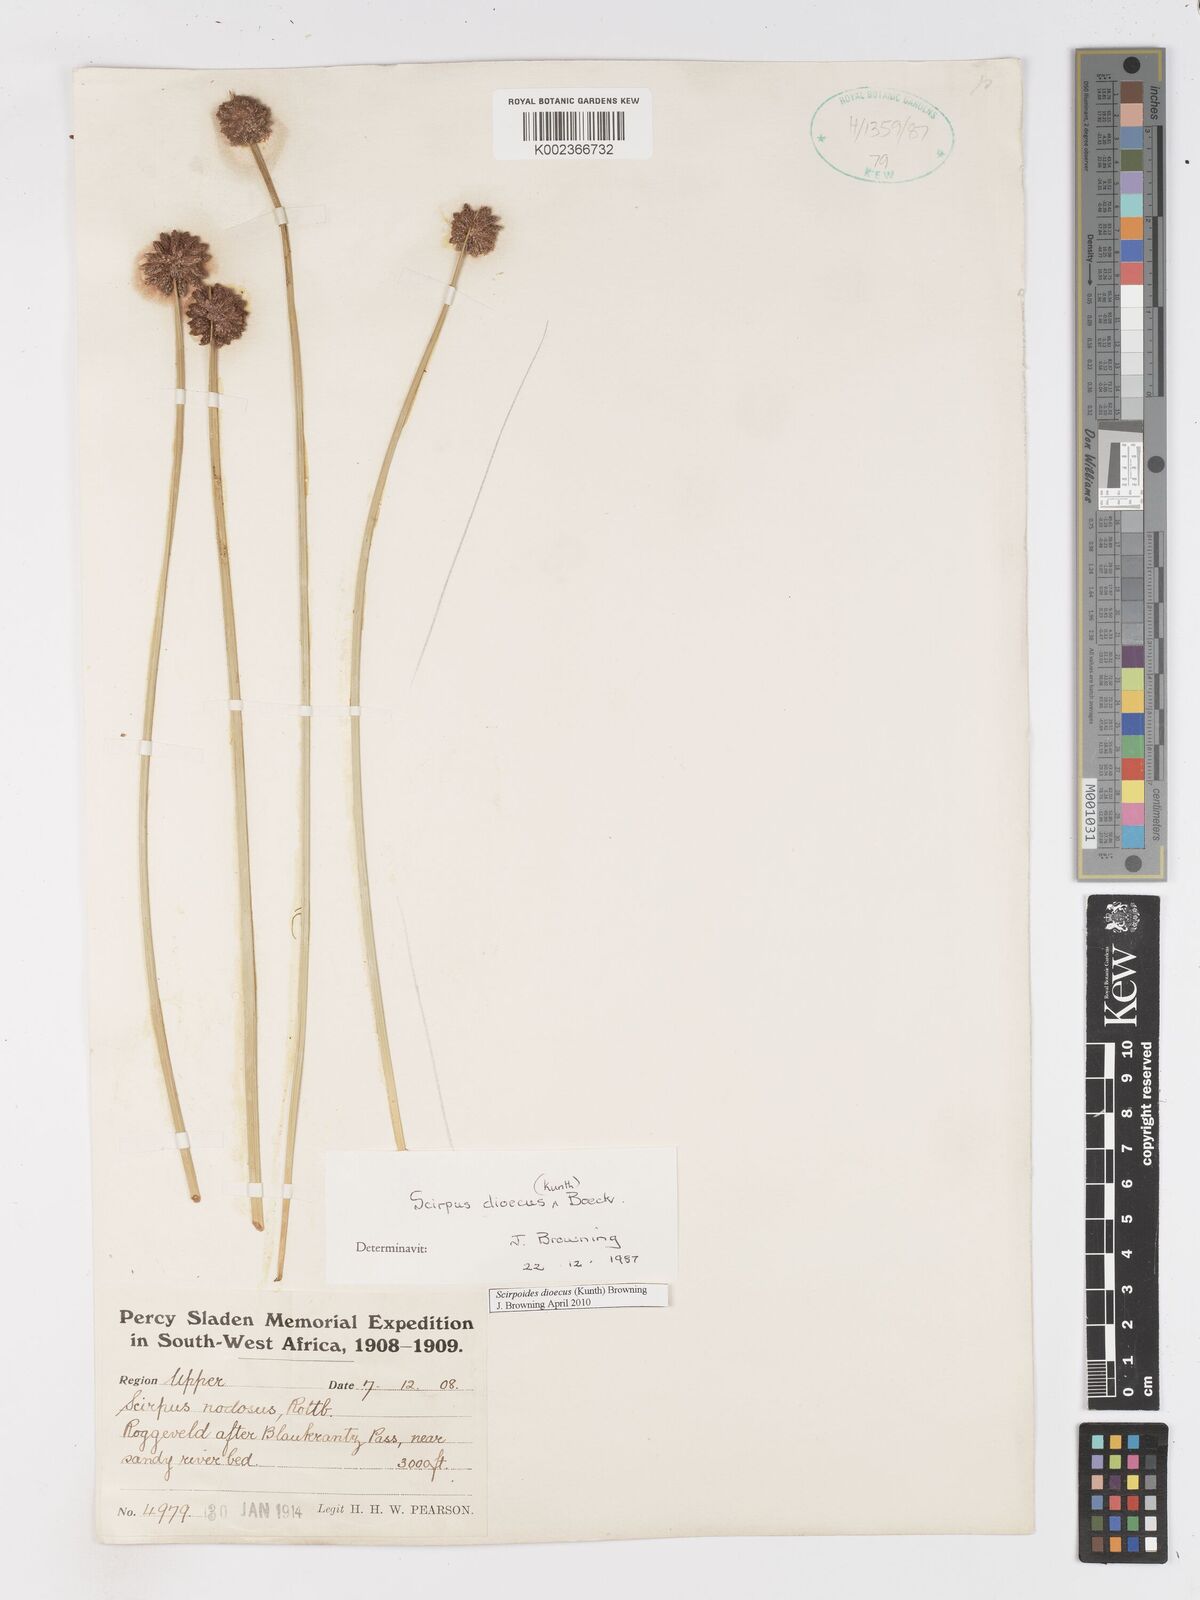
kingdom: Plantae
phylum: Tracheophyta
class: Liliopsida
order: Poales
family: Cyperaceae
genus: Scirpoides
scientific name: Scirpoides
